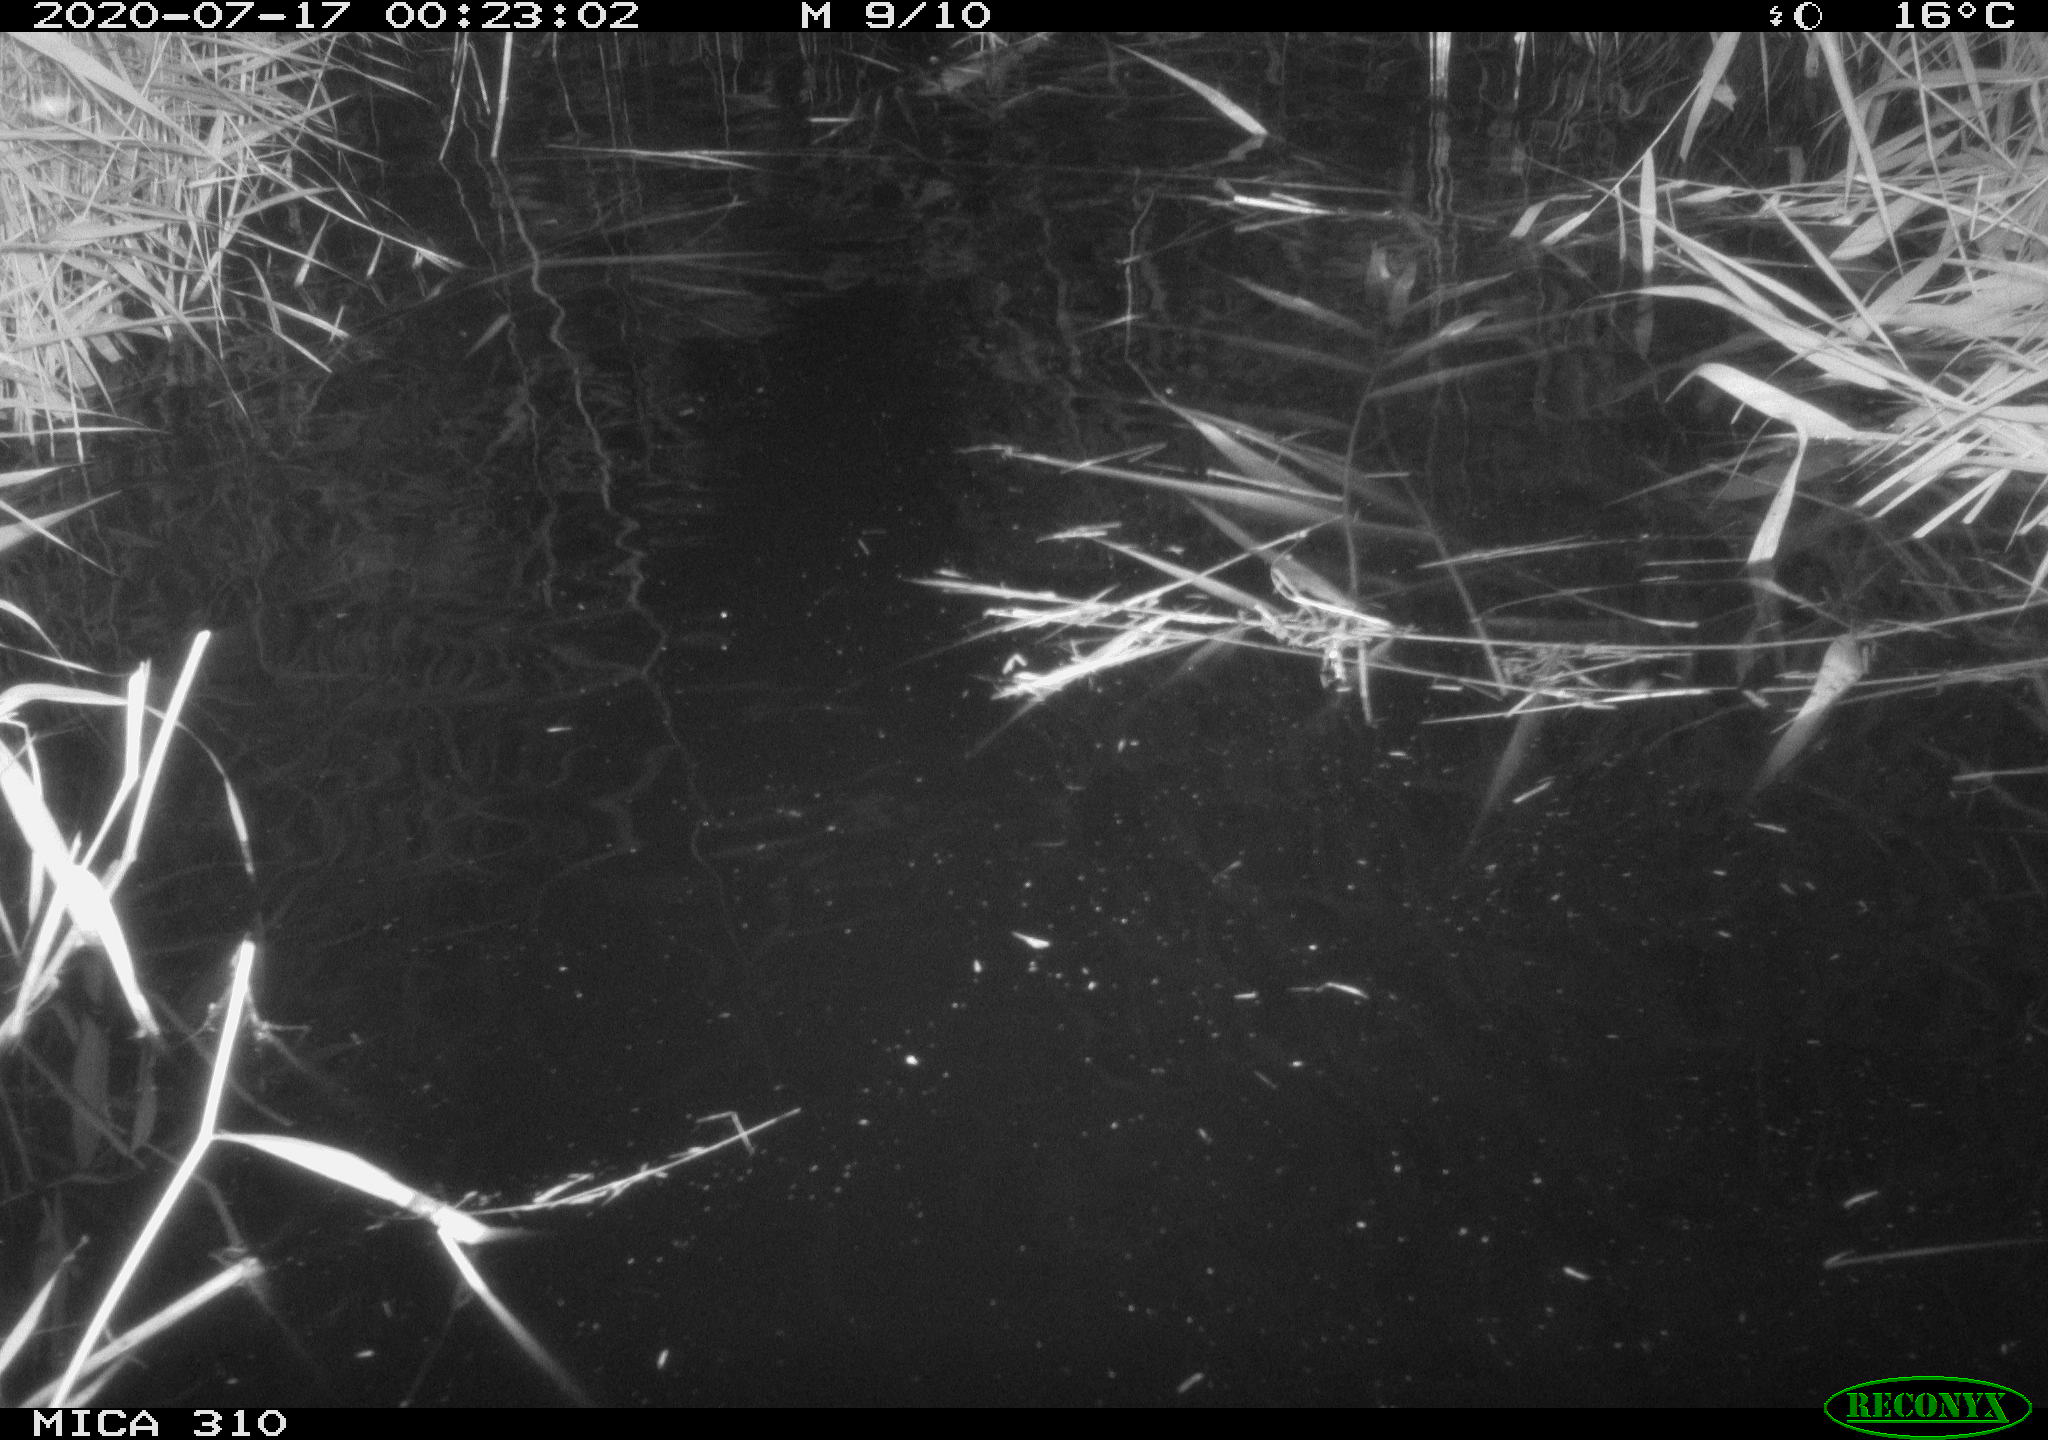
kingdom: Animalia
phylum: Chordata
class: Mammalia
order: Rodentia
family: Muridae
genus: Rattus
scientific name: Rattus norvegicus
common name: Brown rat
